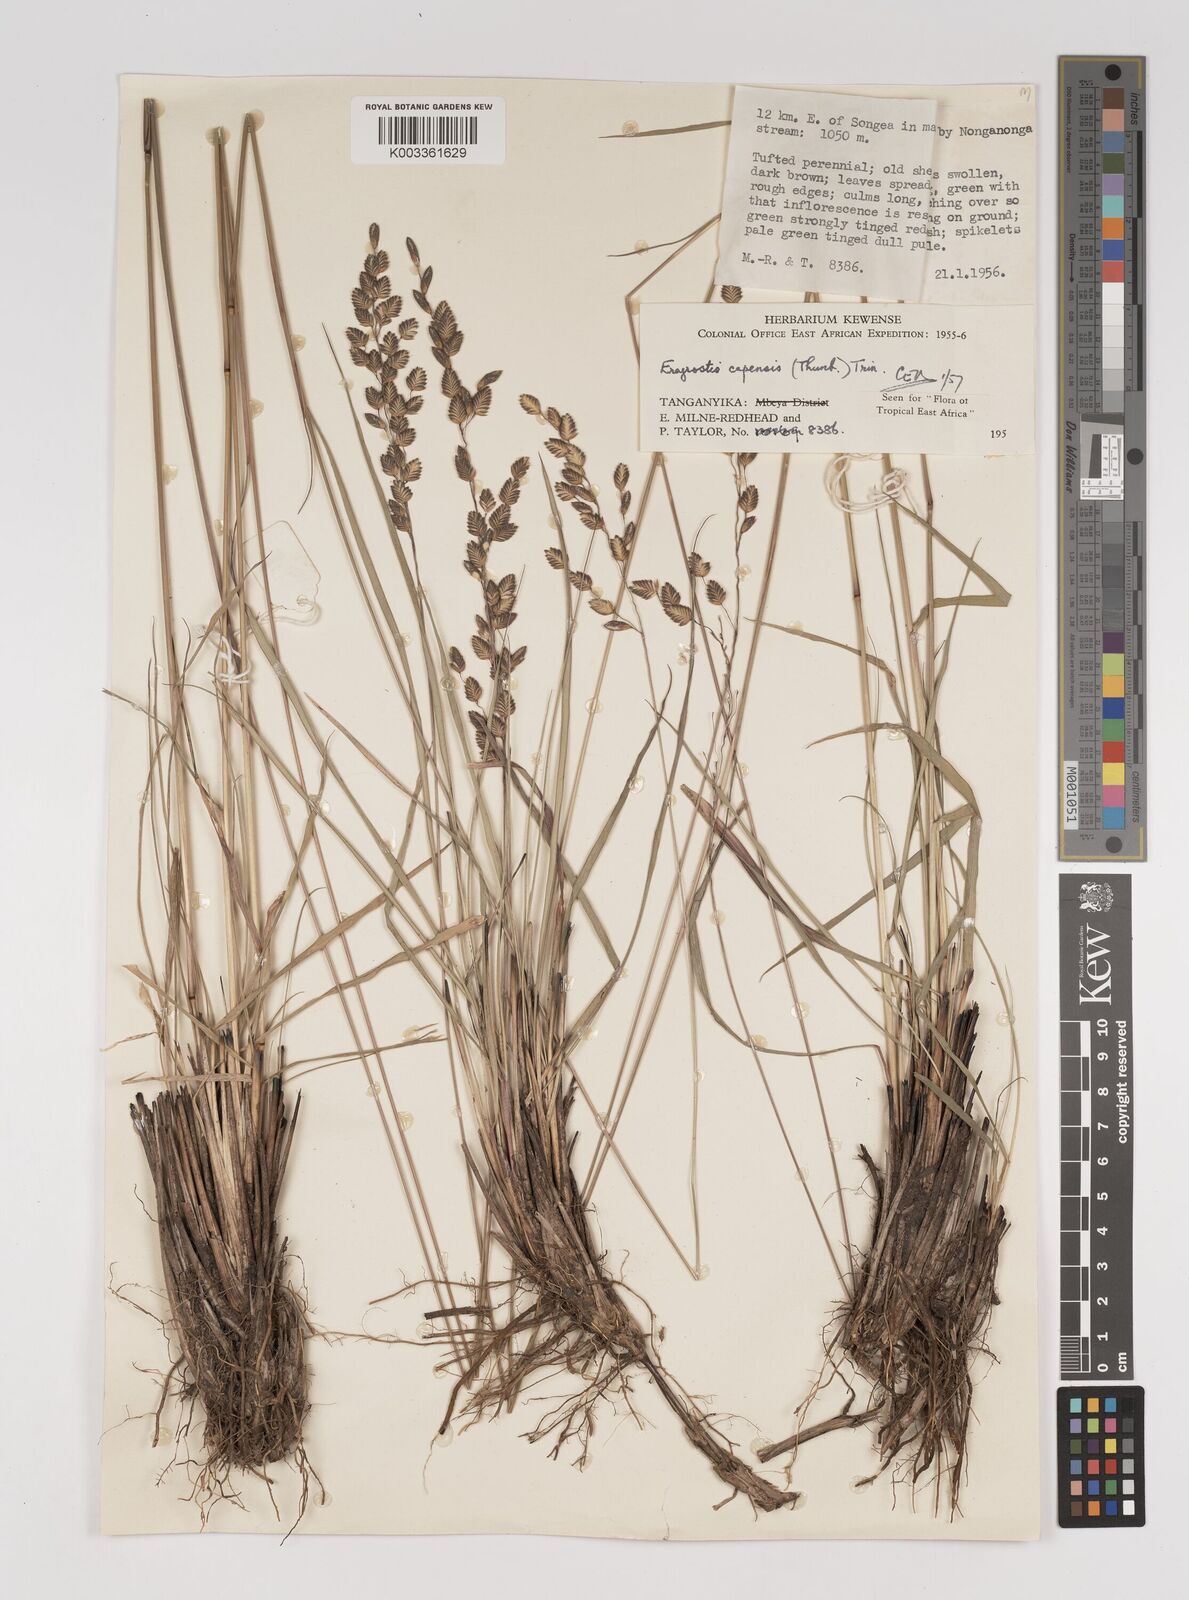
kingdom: Plantae
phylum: Tracheophyta
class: Liliopsida
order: Poales
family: Poaceae
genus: Eragrostis
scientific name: Eragrostis capensis
